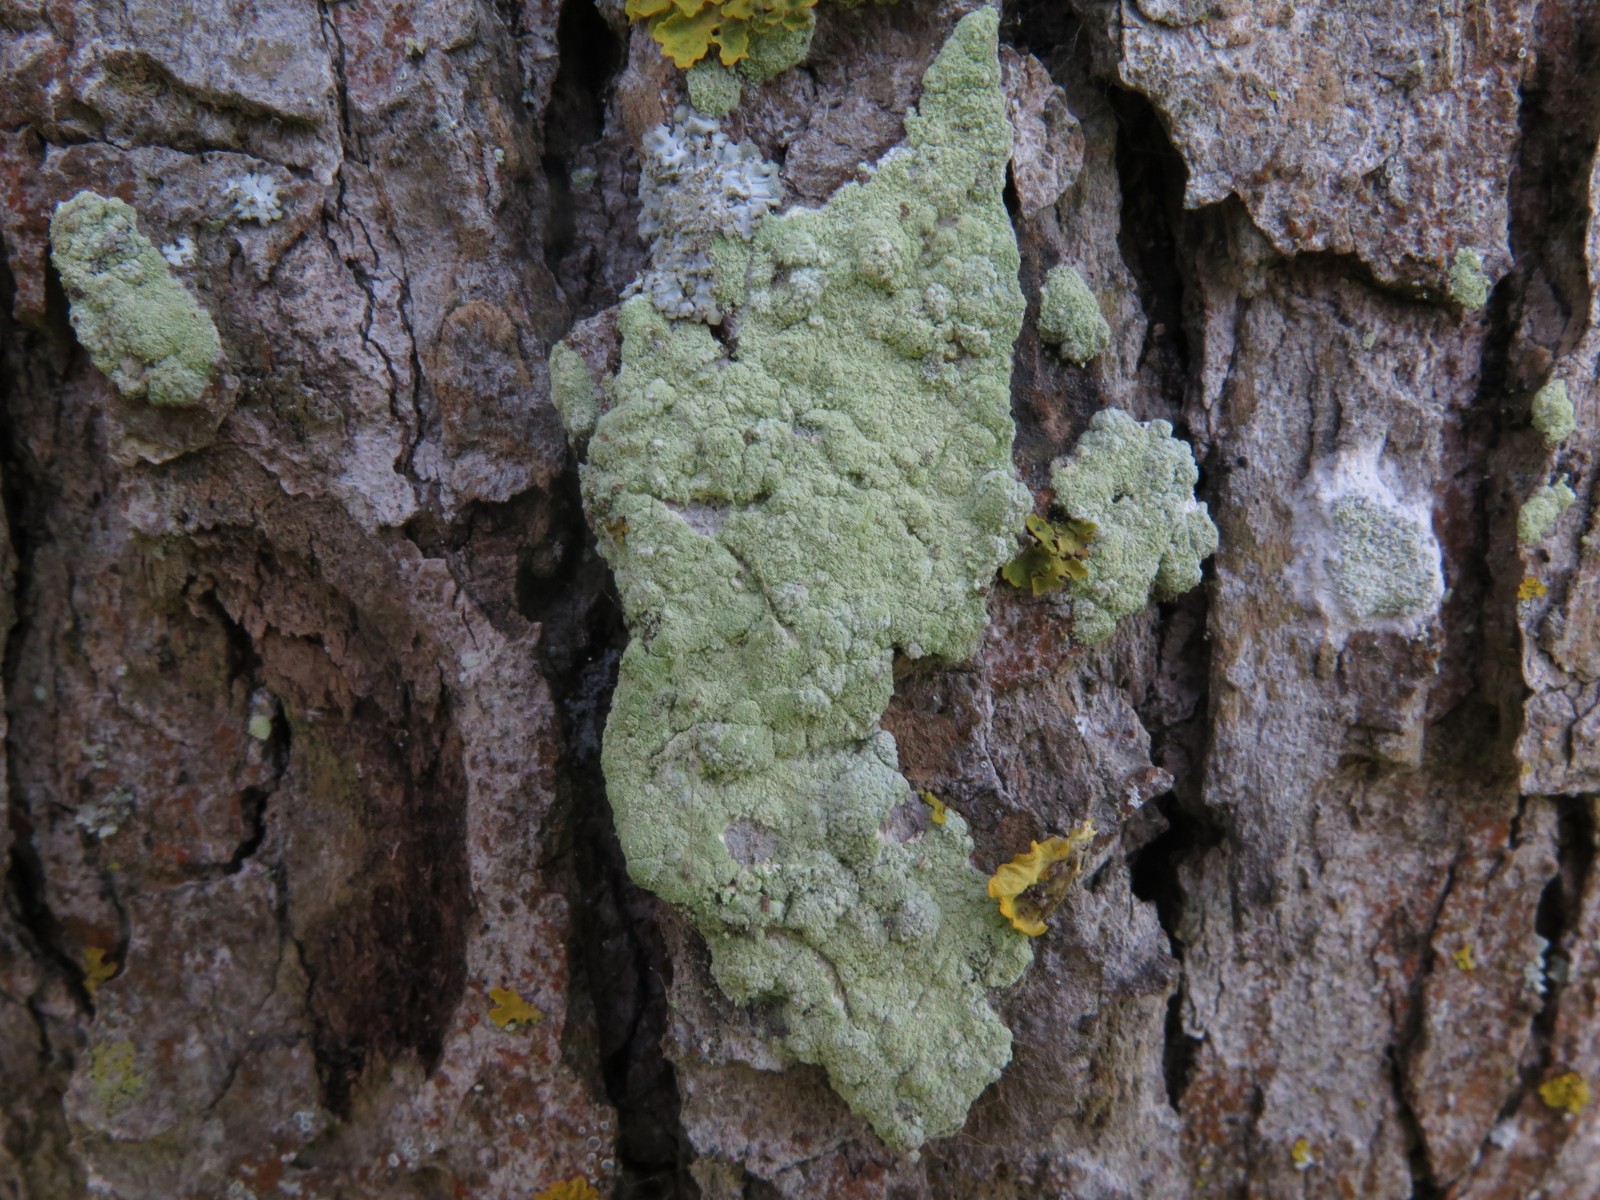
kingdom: Fungi
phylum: Ascomycota
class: Lecanoromycetes
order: Lecanorales
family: Stereocaulaceae
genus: Lepraria
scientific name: Lepraria incana
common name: almindelig støvlav
